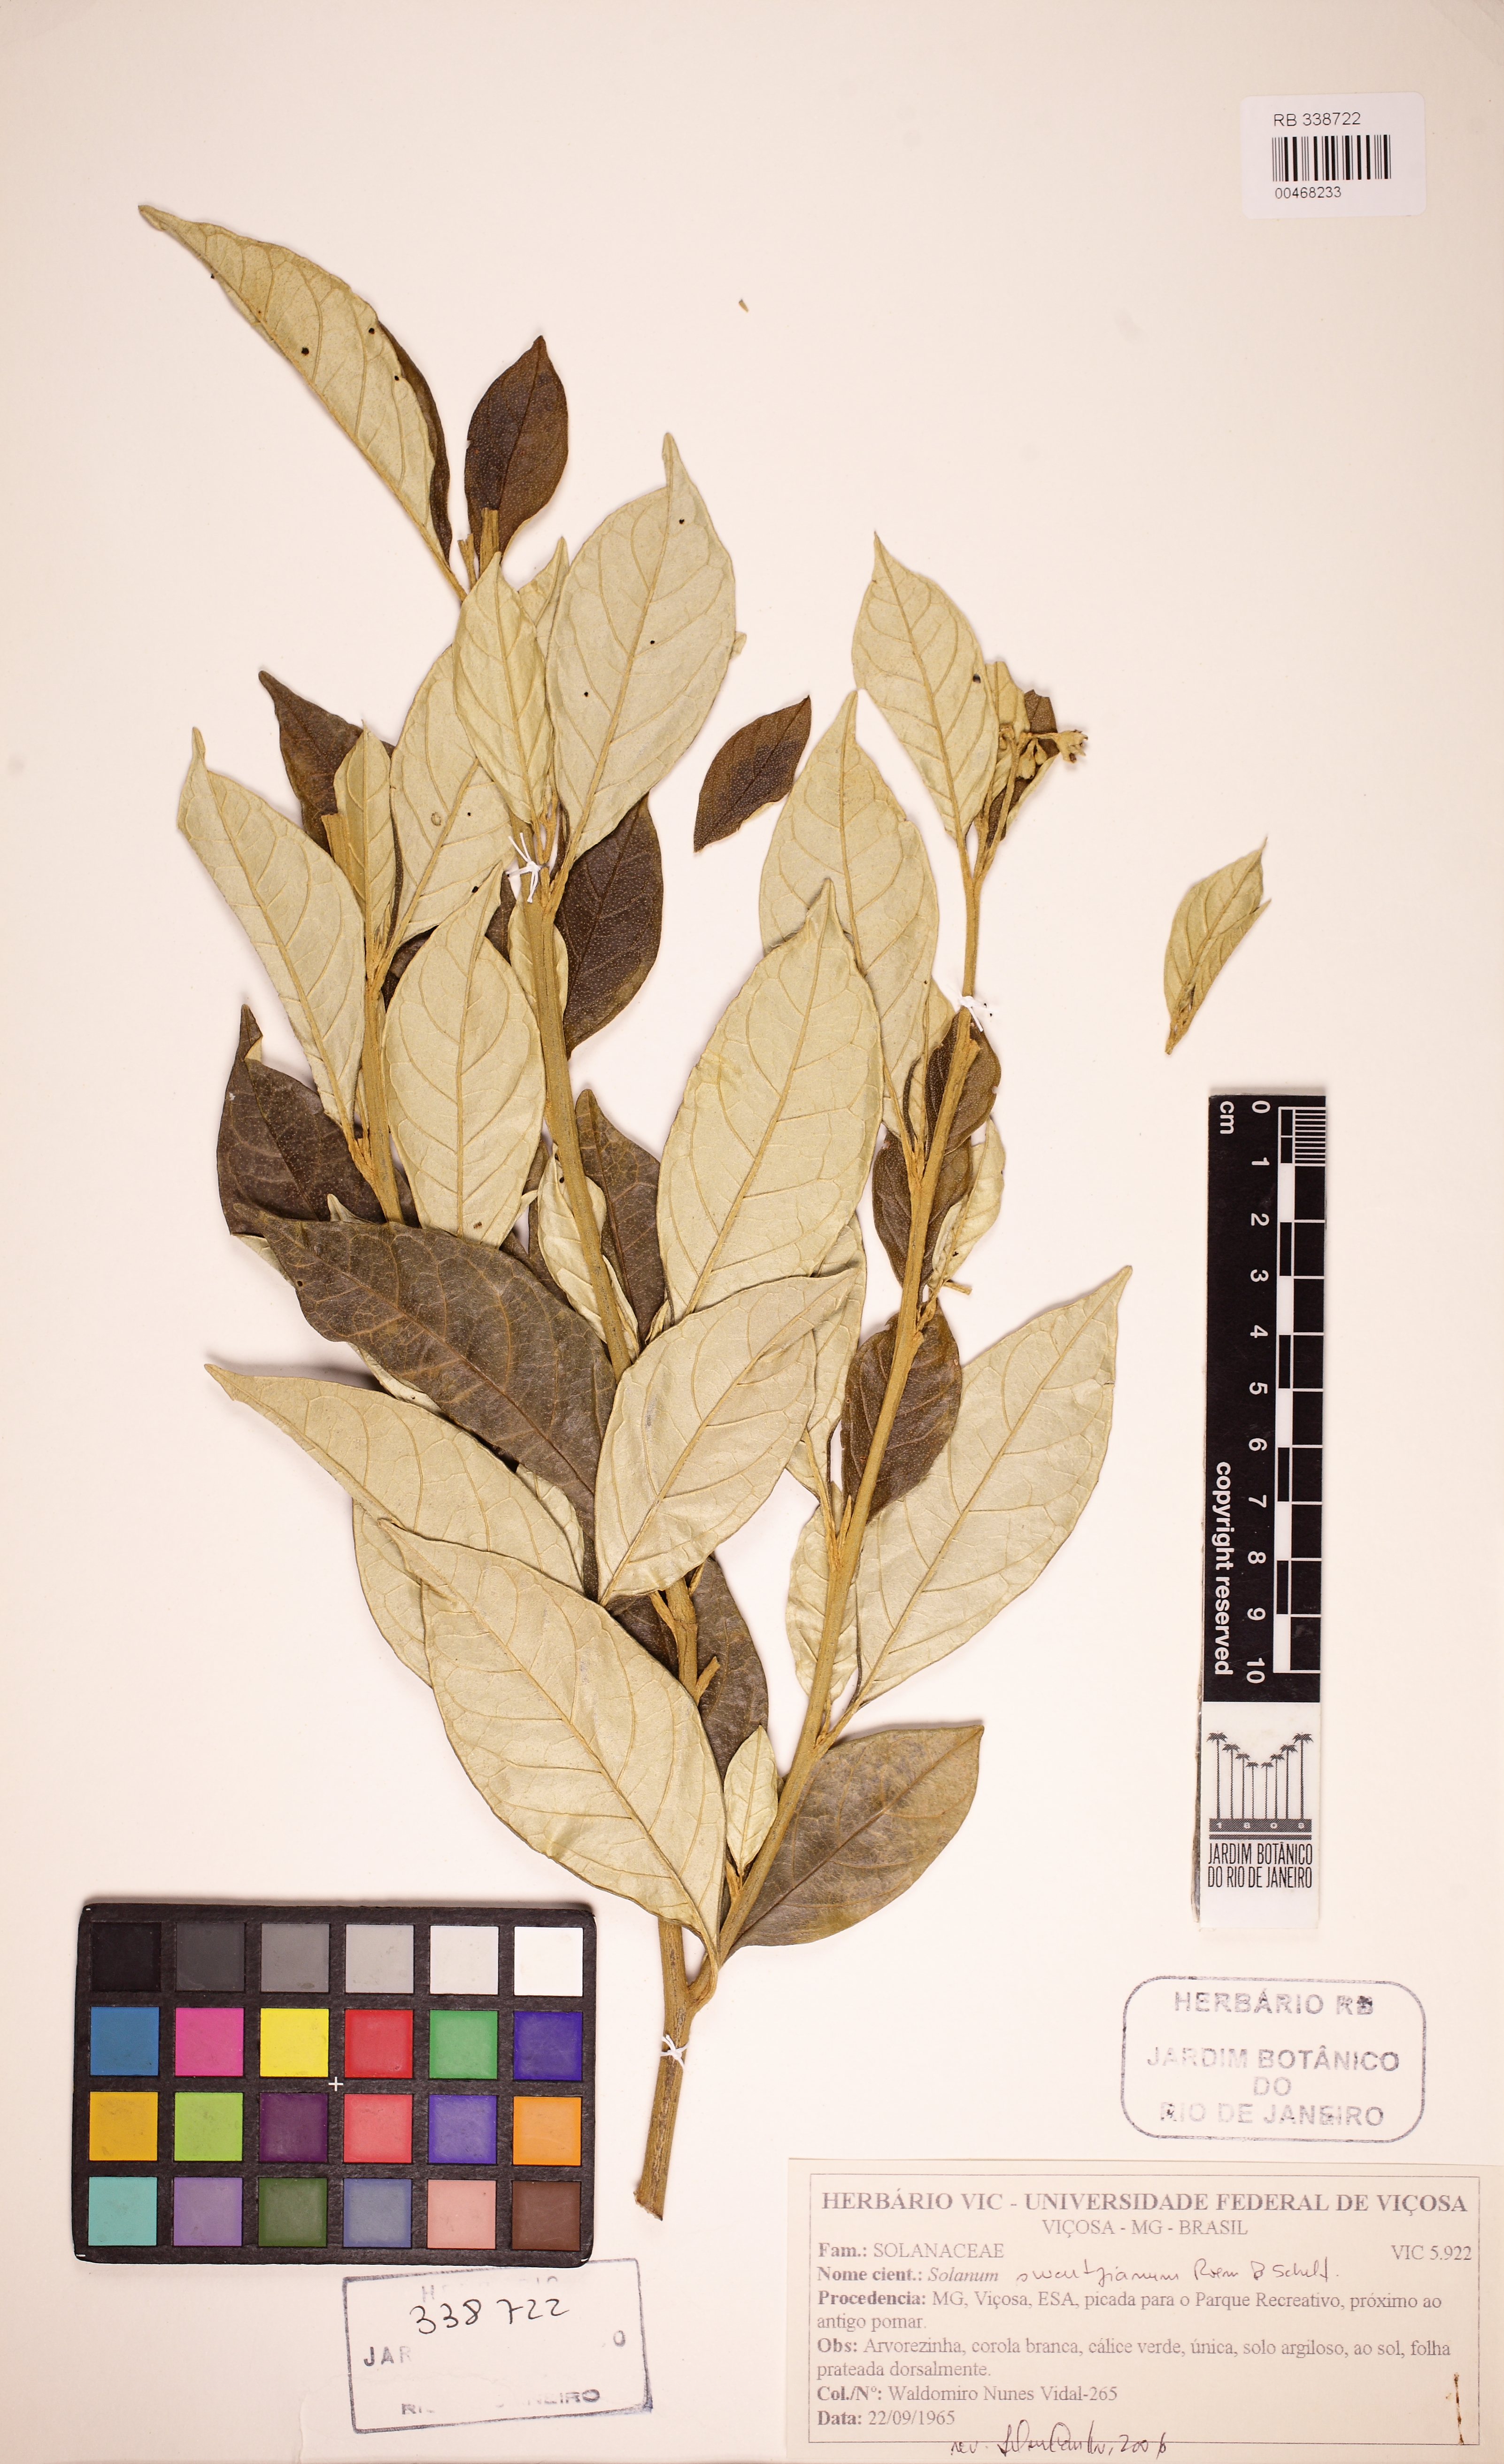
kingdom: Plantae
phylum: Tracheophyta
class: Magnoliopsida
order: Solanales
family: Solanaceae
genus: Solanum
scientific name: Solanum swartzianum
